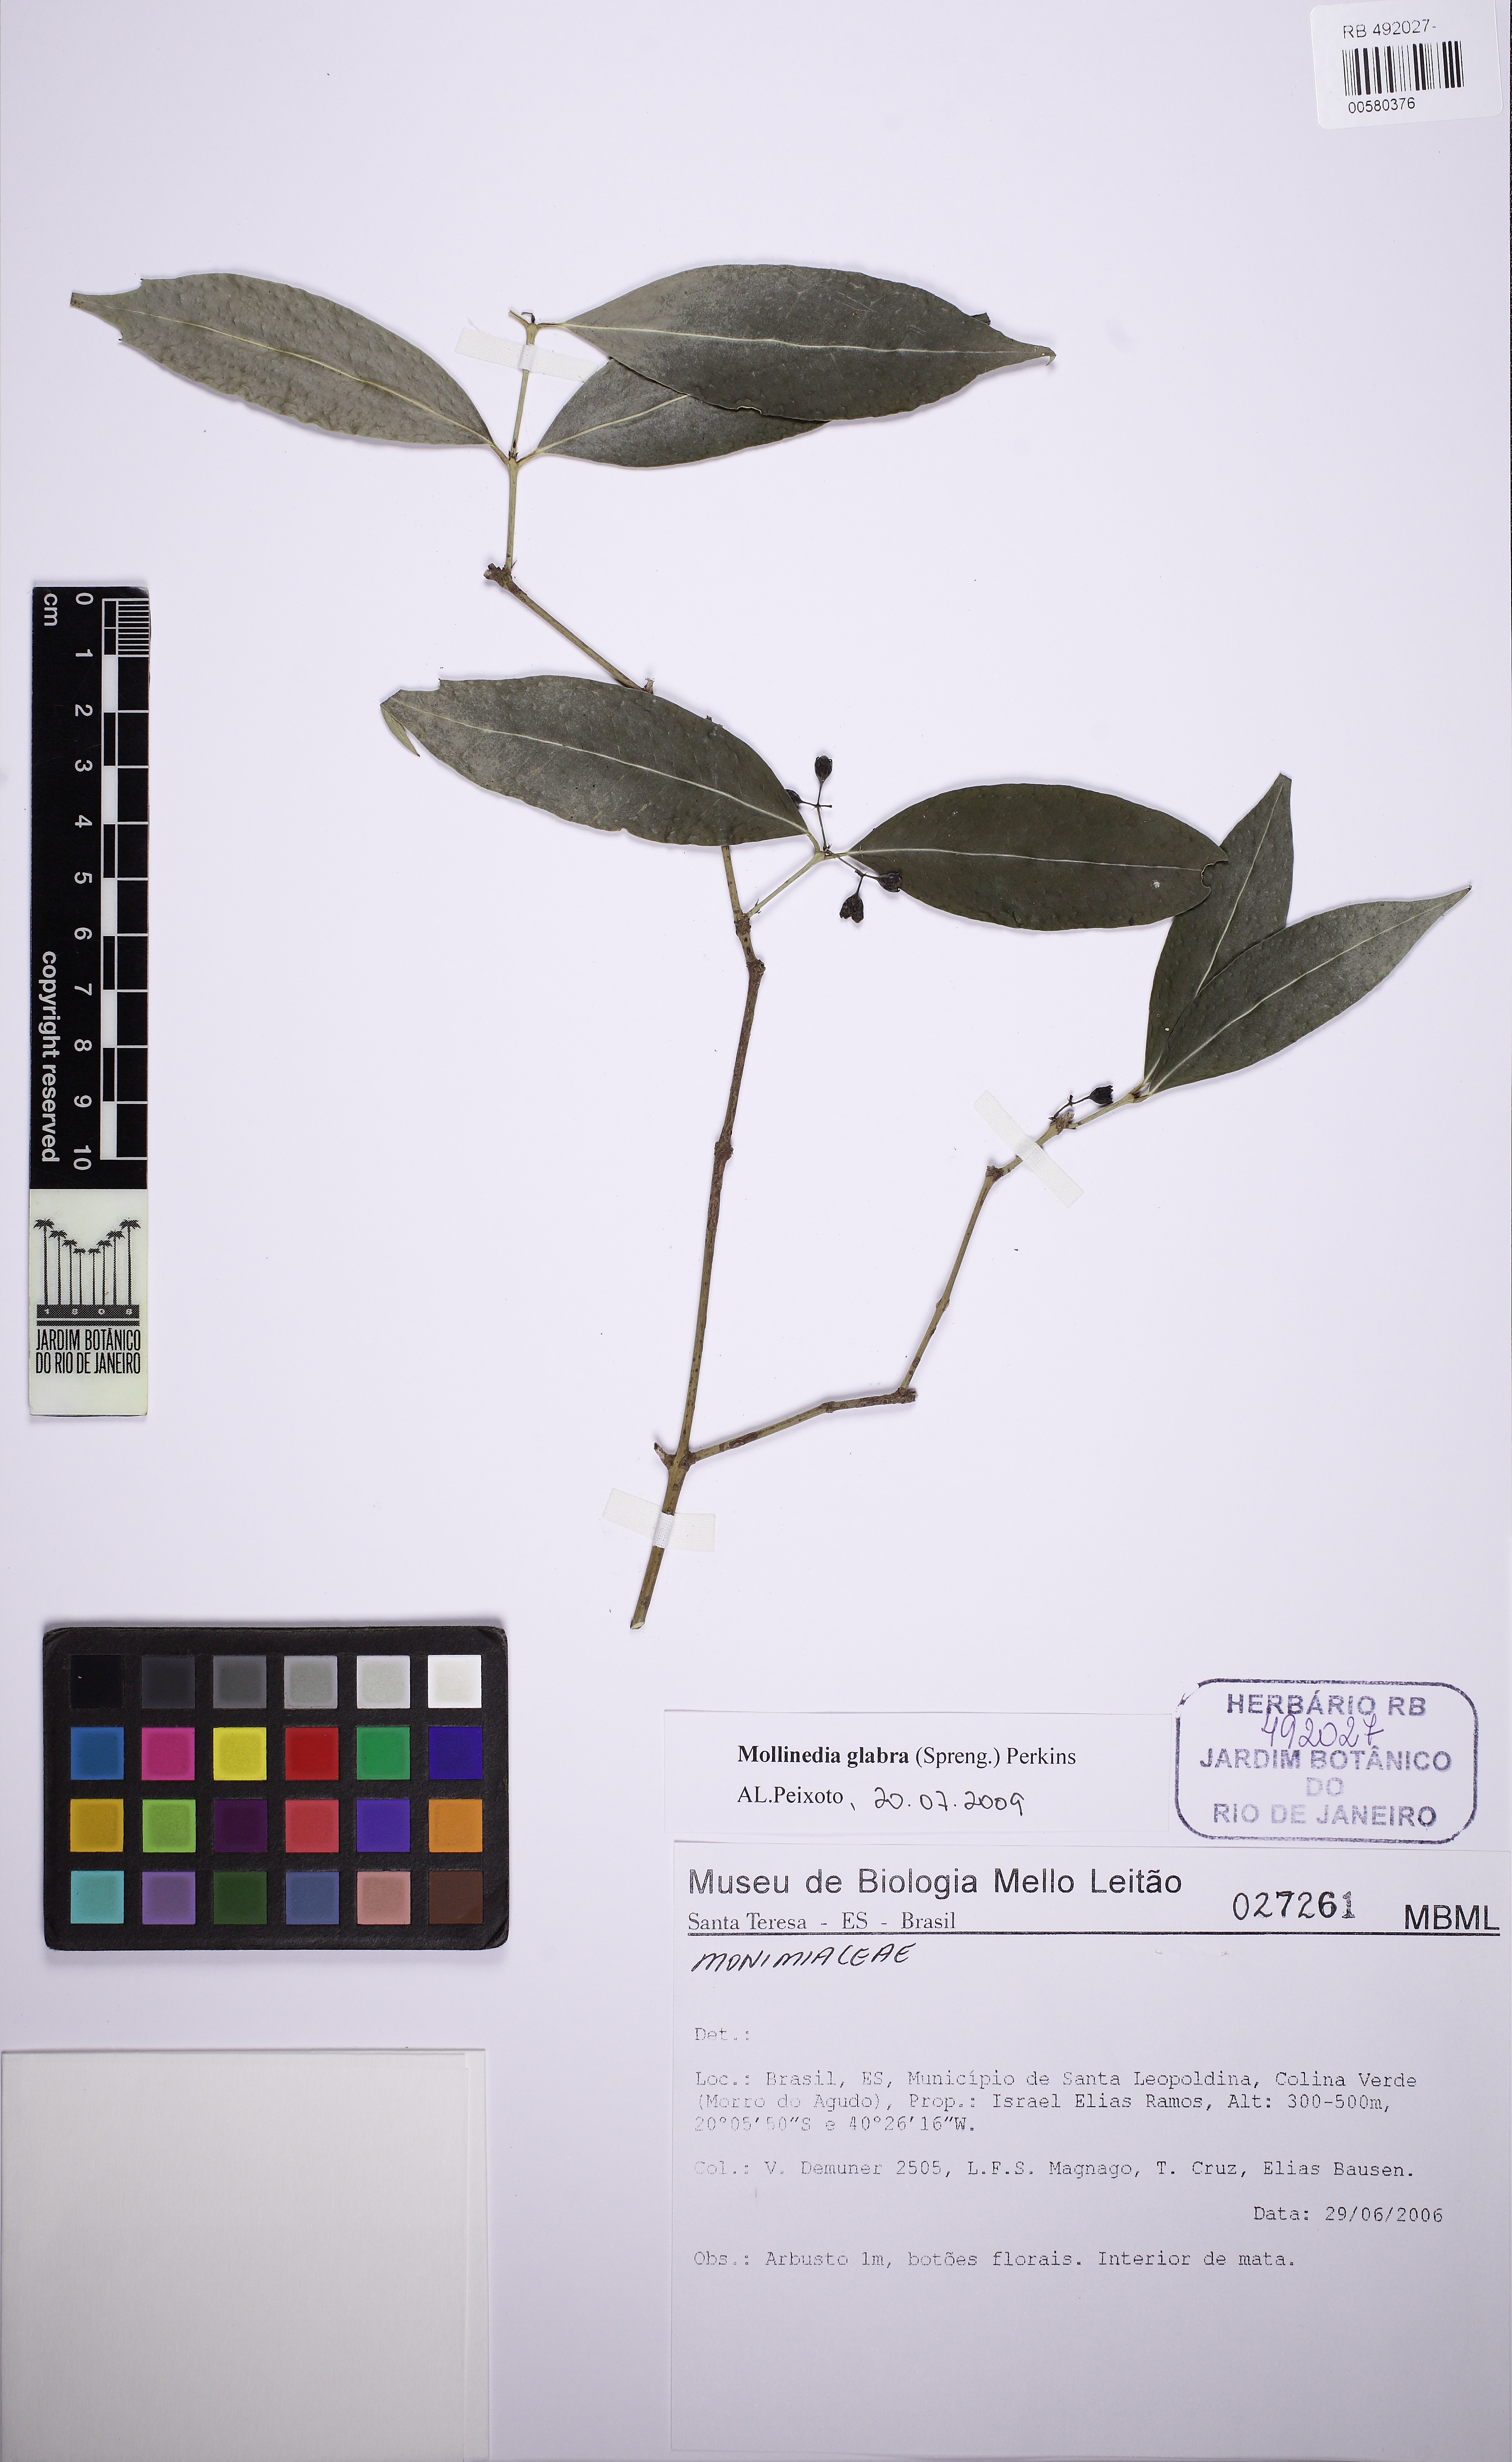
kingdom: Plantae
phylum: Tracheophyta
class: Magnoliopsida
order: Laurales
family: Monimiaceae
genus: Mollinedia
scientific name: Mollinedia glabra
